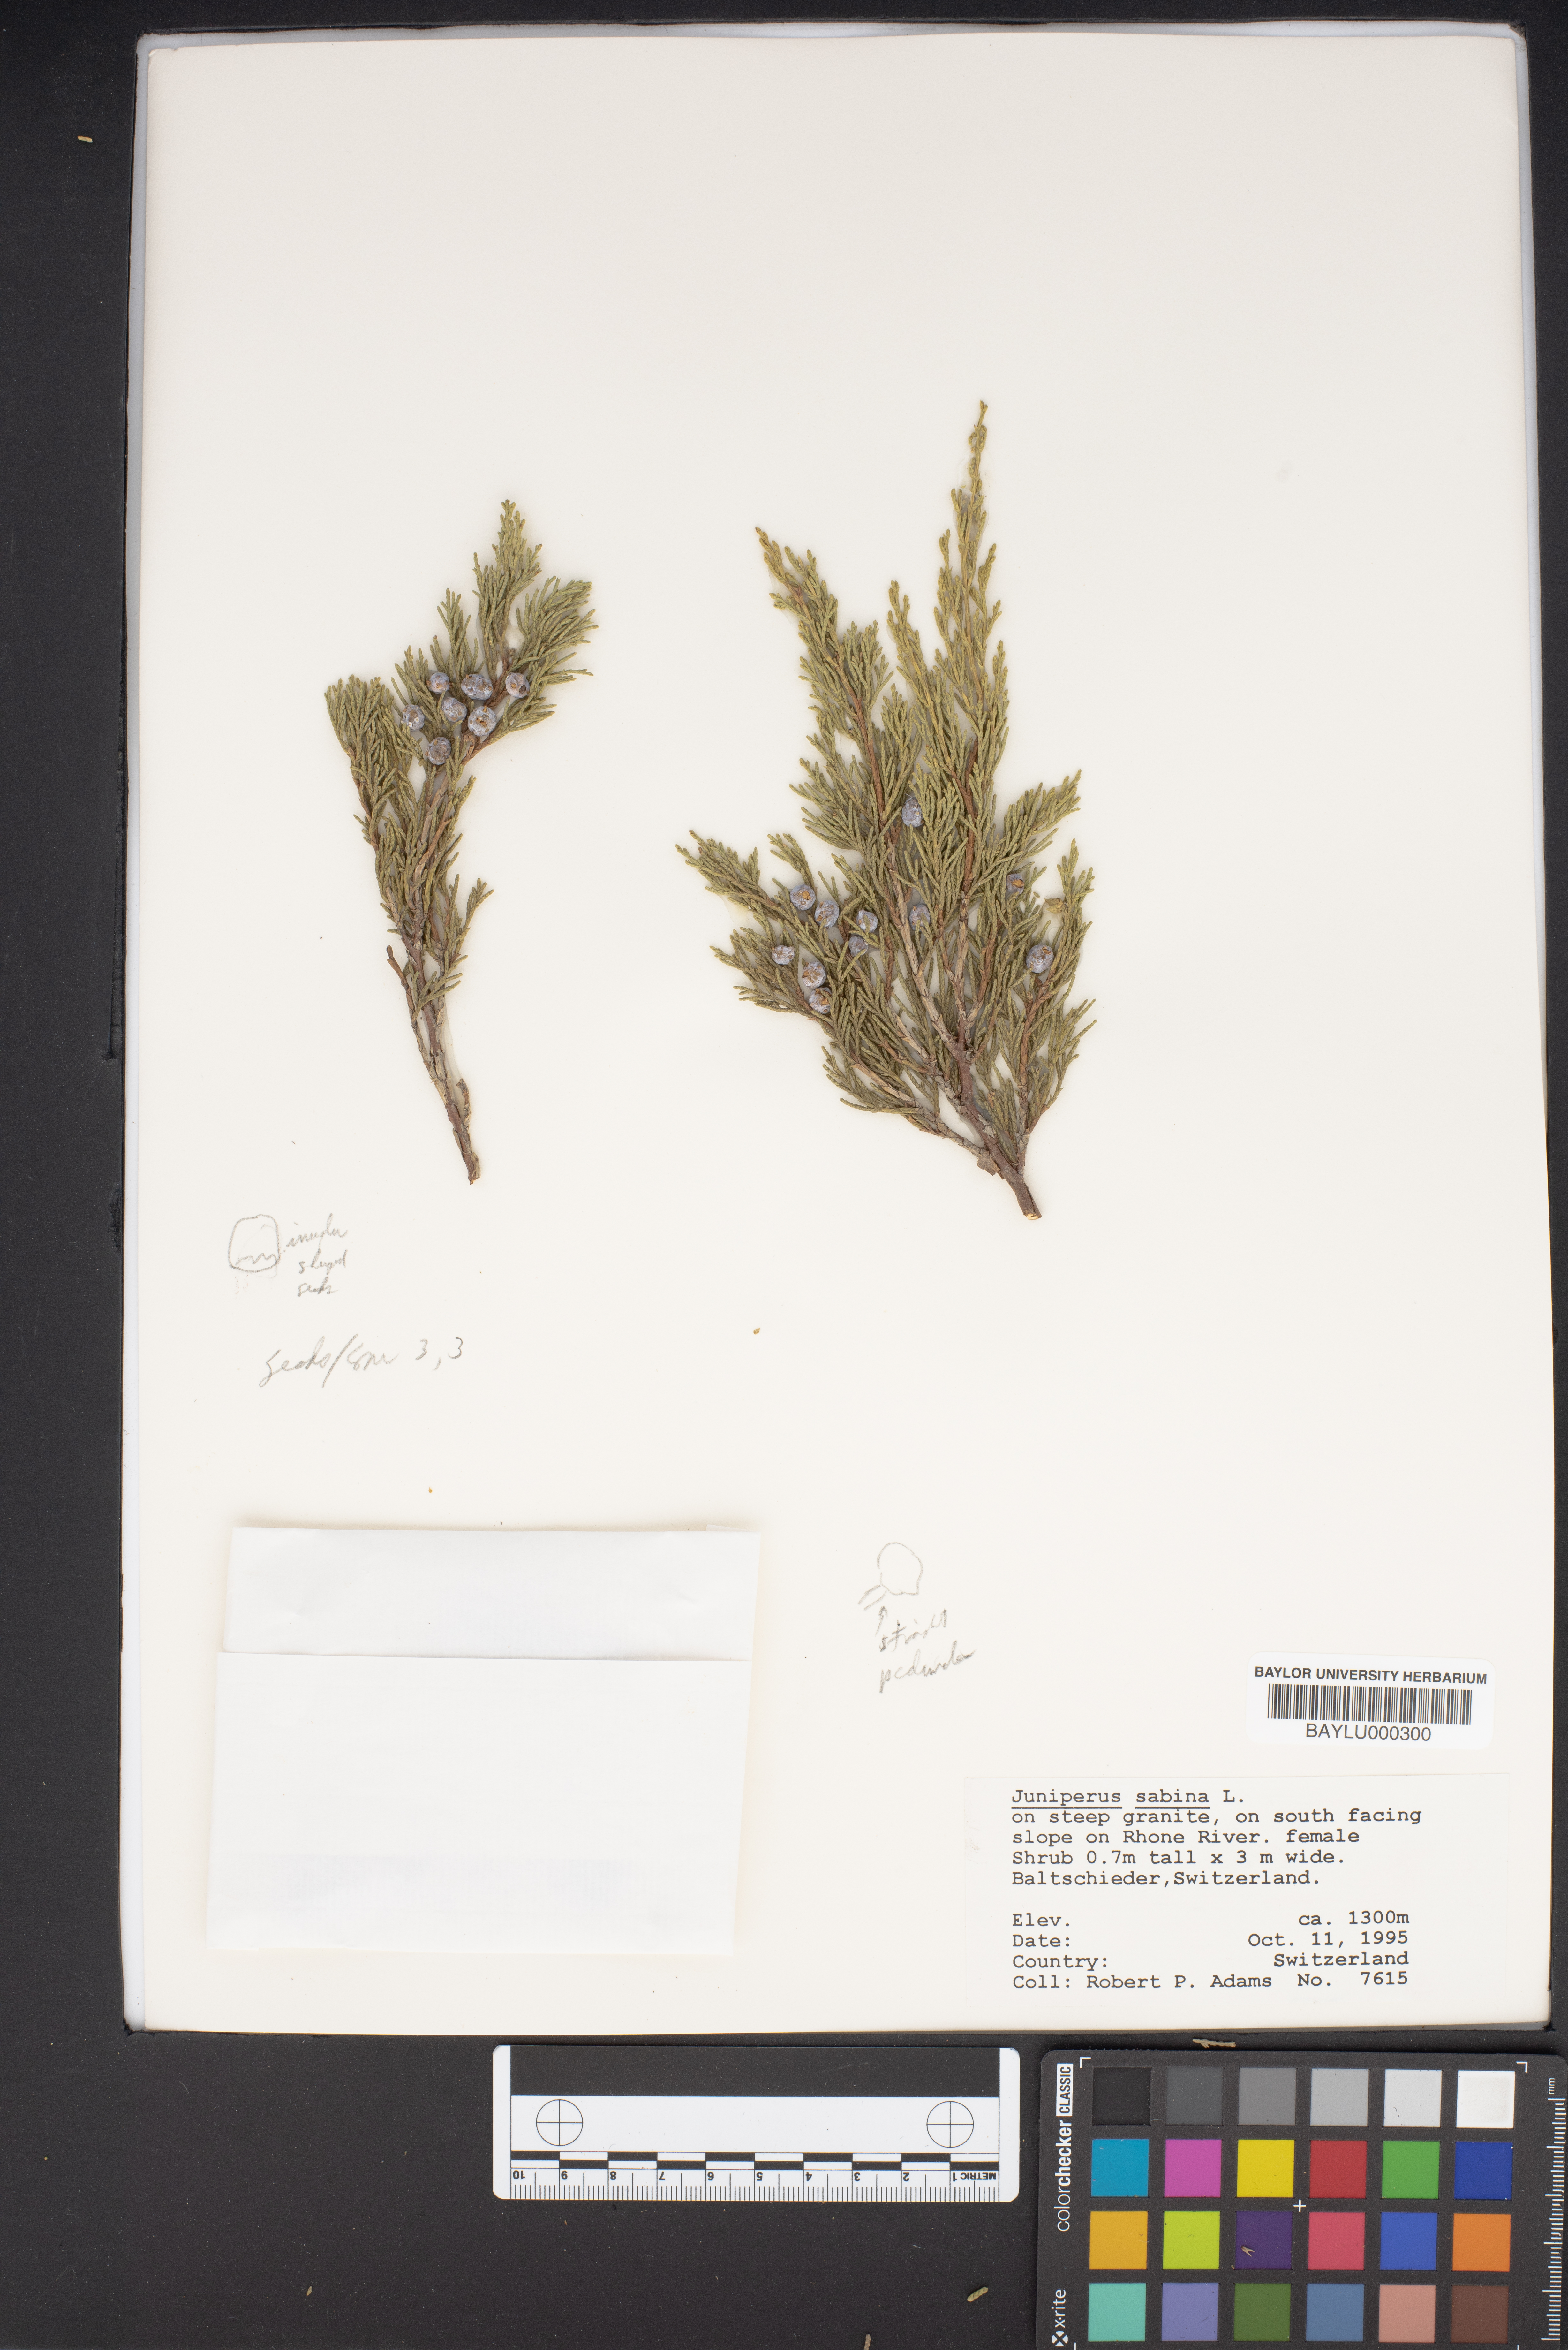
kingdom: Plantae
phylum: Tracheophyta
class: Pinopsida
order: Pinales
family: Cupressaceae
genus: Juniperus
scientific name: Juniperus sabina
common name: Savin
